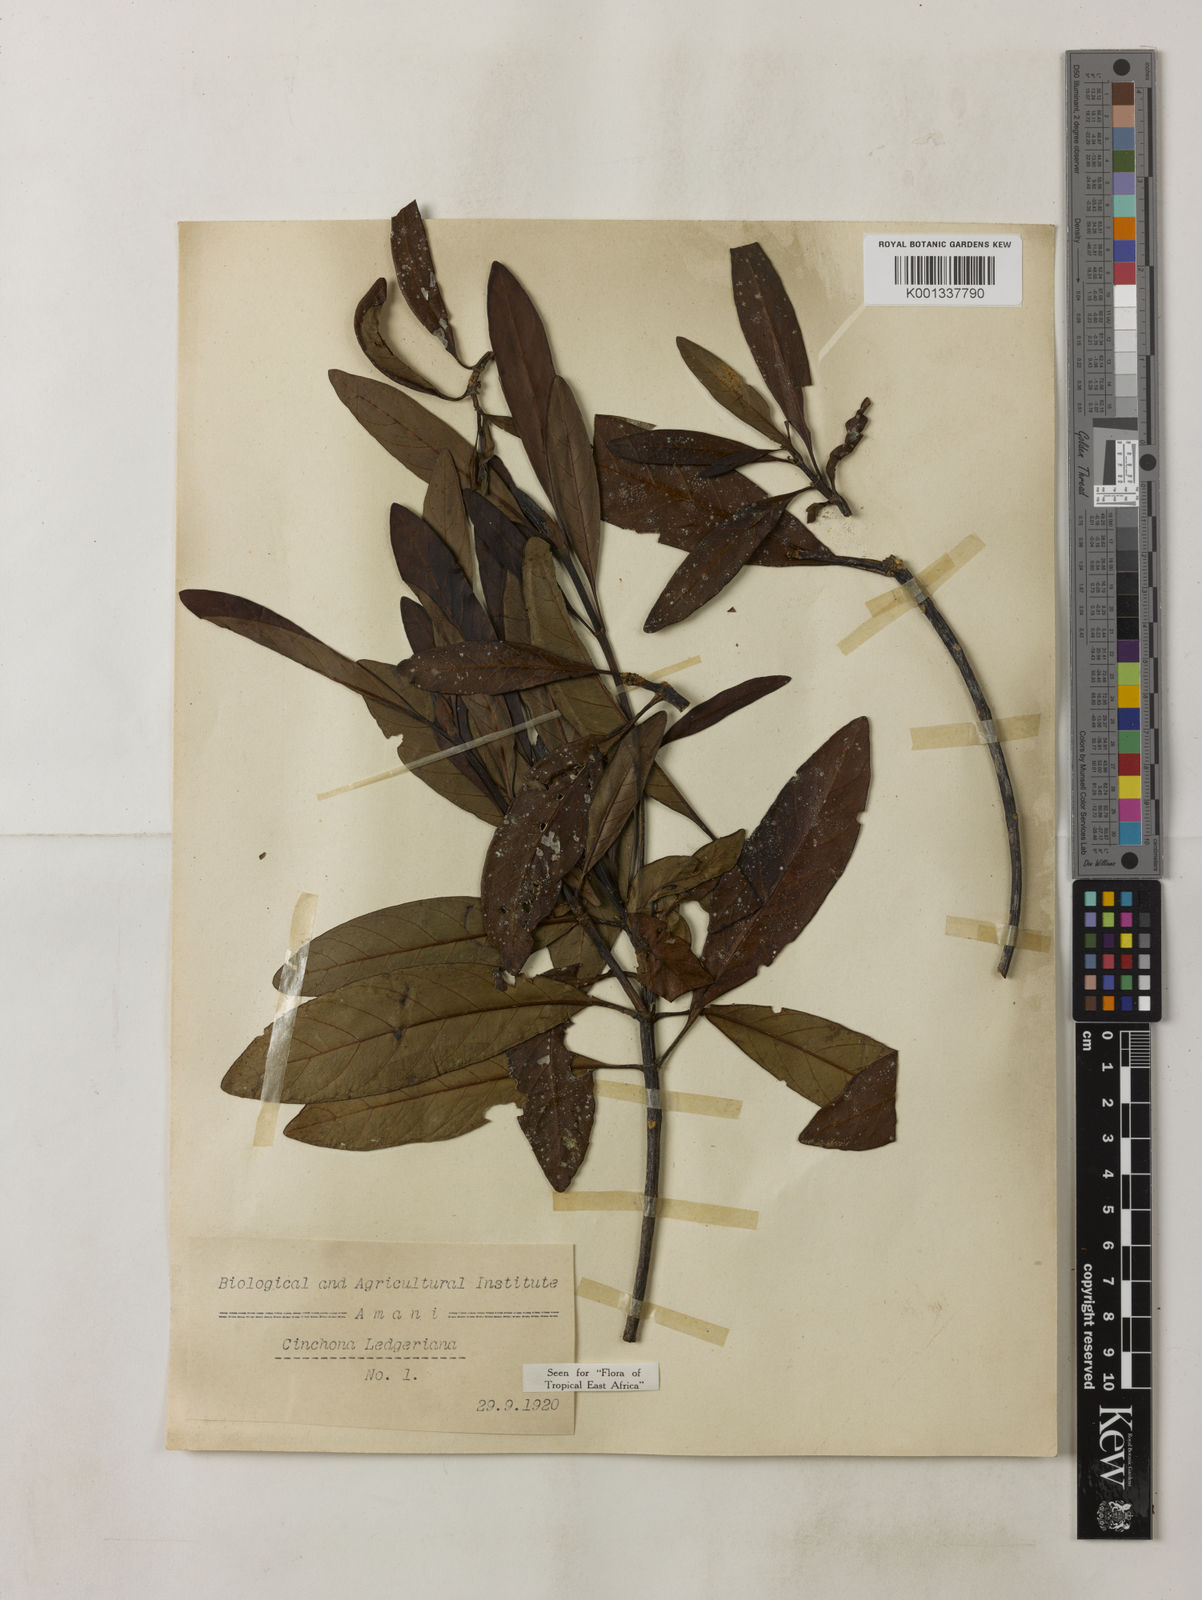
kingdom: Plantae
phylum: Tracheophyta
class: Magnoliopsida
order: Gentianales
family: Rubiaceae
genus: Cinchona
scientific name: Cinchona calisaya
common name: Ledgerbark
